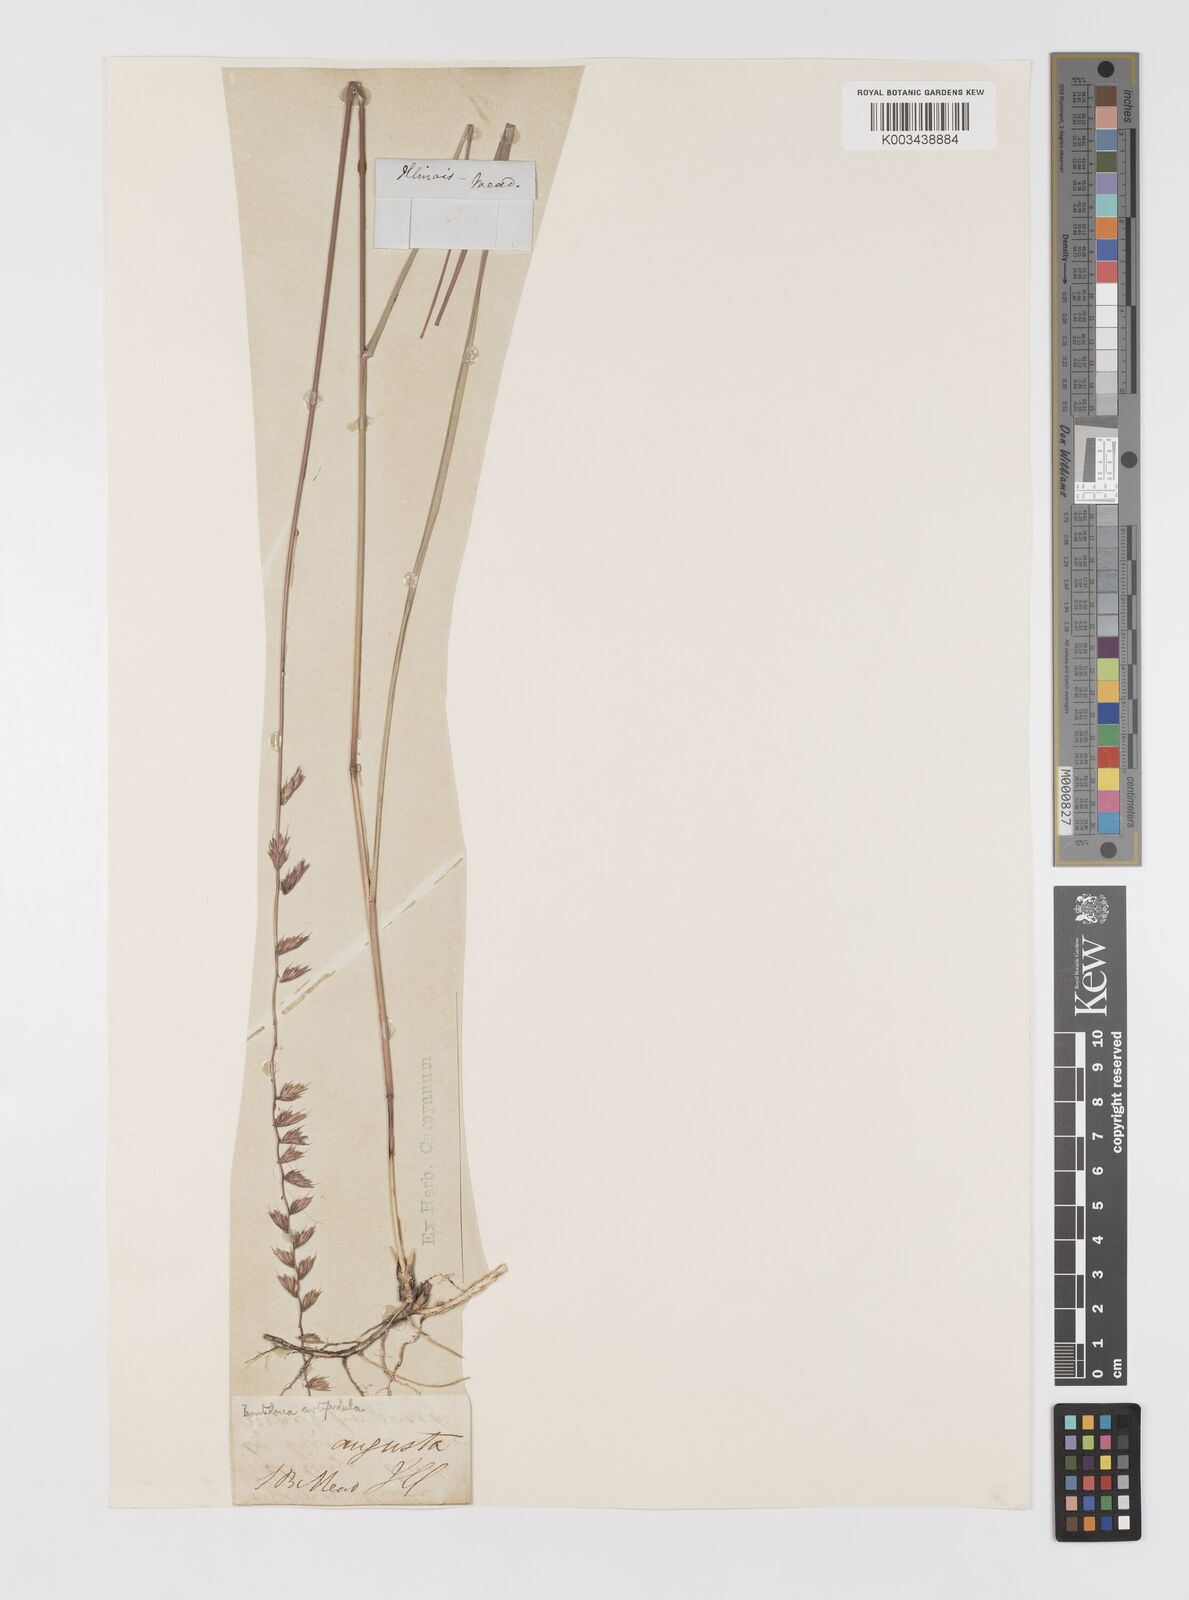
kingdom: Plantae
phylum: Tracheophyta
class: Liliopsida
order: Poales
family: Poaceae
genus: Bouteloua
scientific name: Bouteloua curtipendula
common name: Side-oats grama
